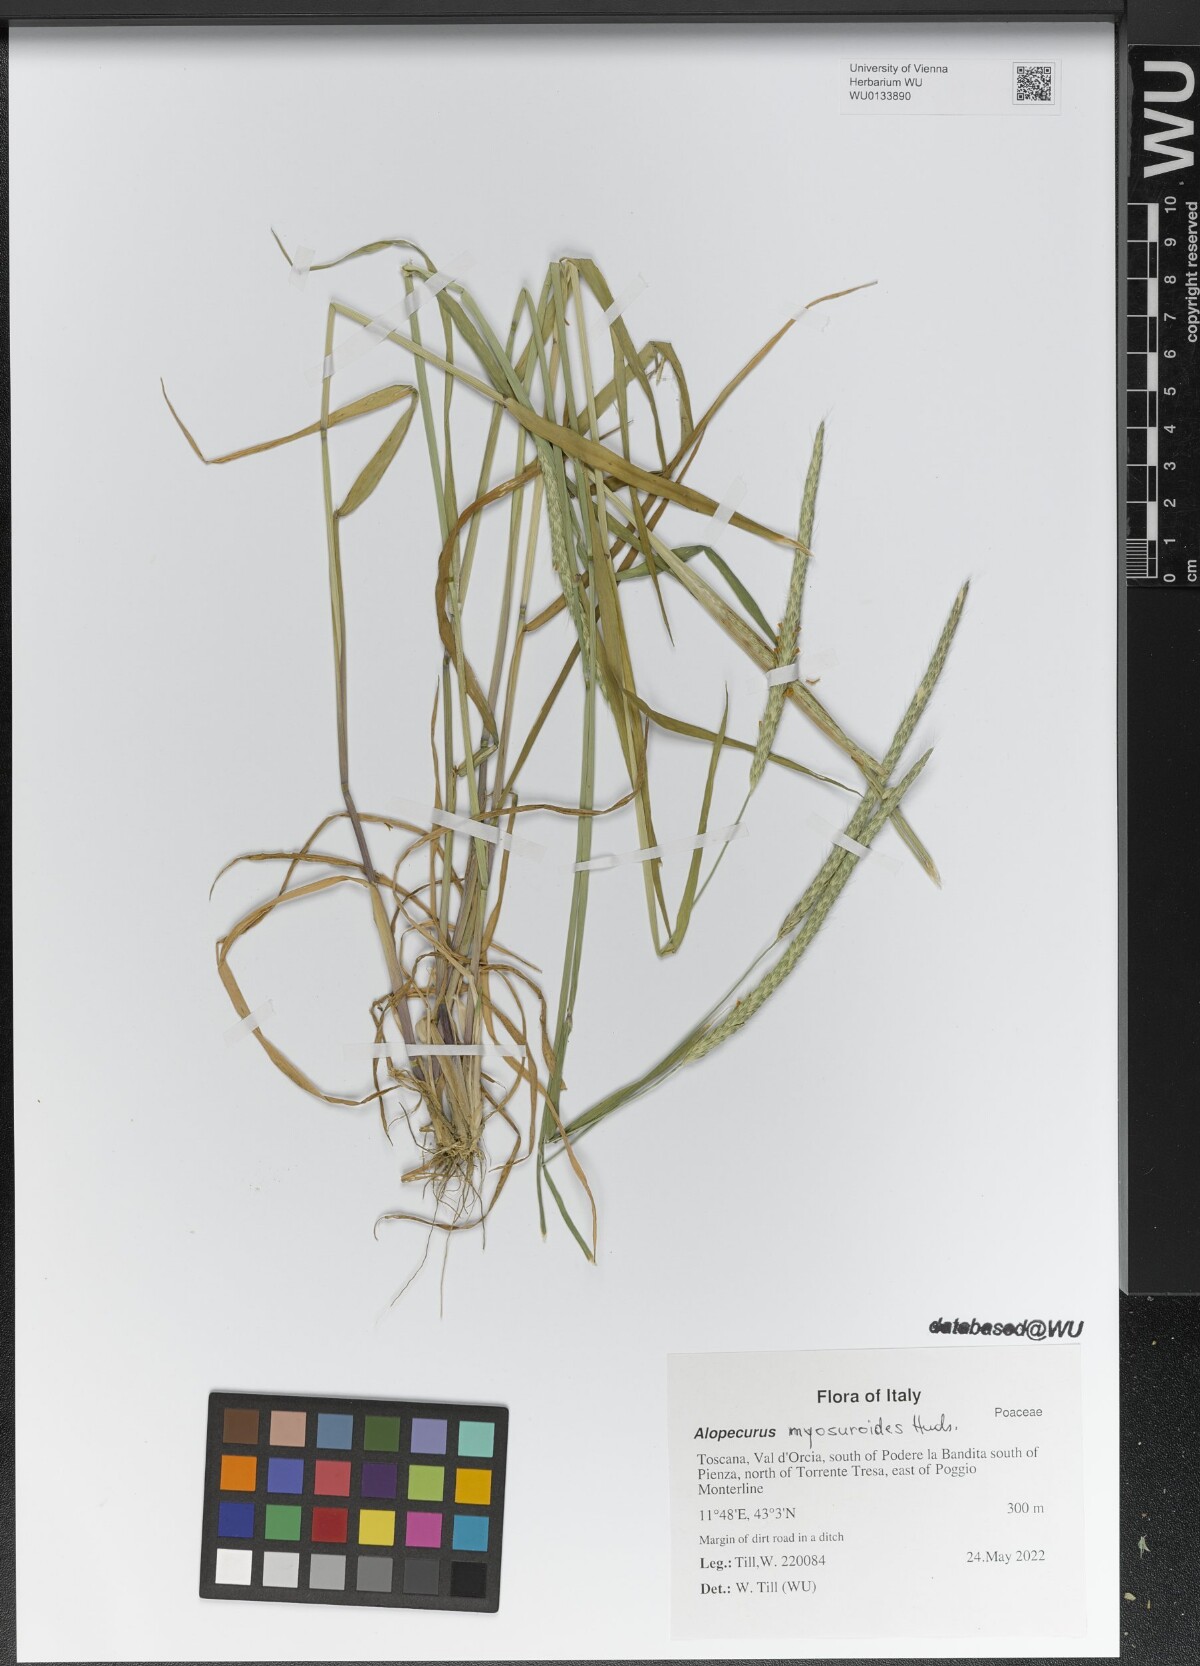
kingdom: Plantae
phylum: Tracheophyta
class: Liliopsida
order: Poales
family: Poaceae
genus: Alopecurus
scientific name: Alopecurus myosuroides
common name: Black-grass
